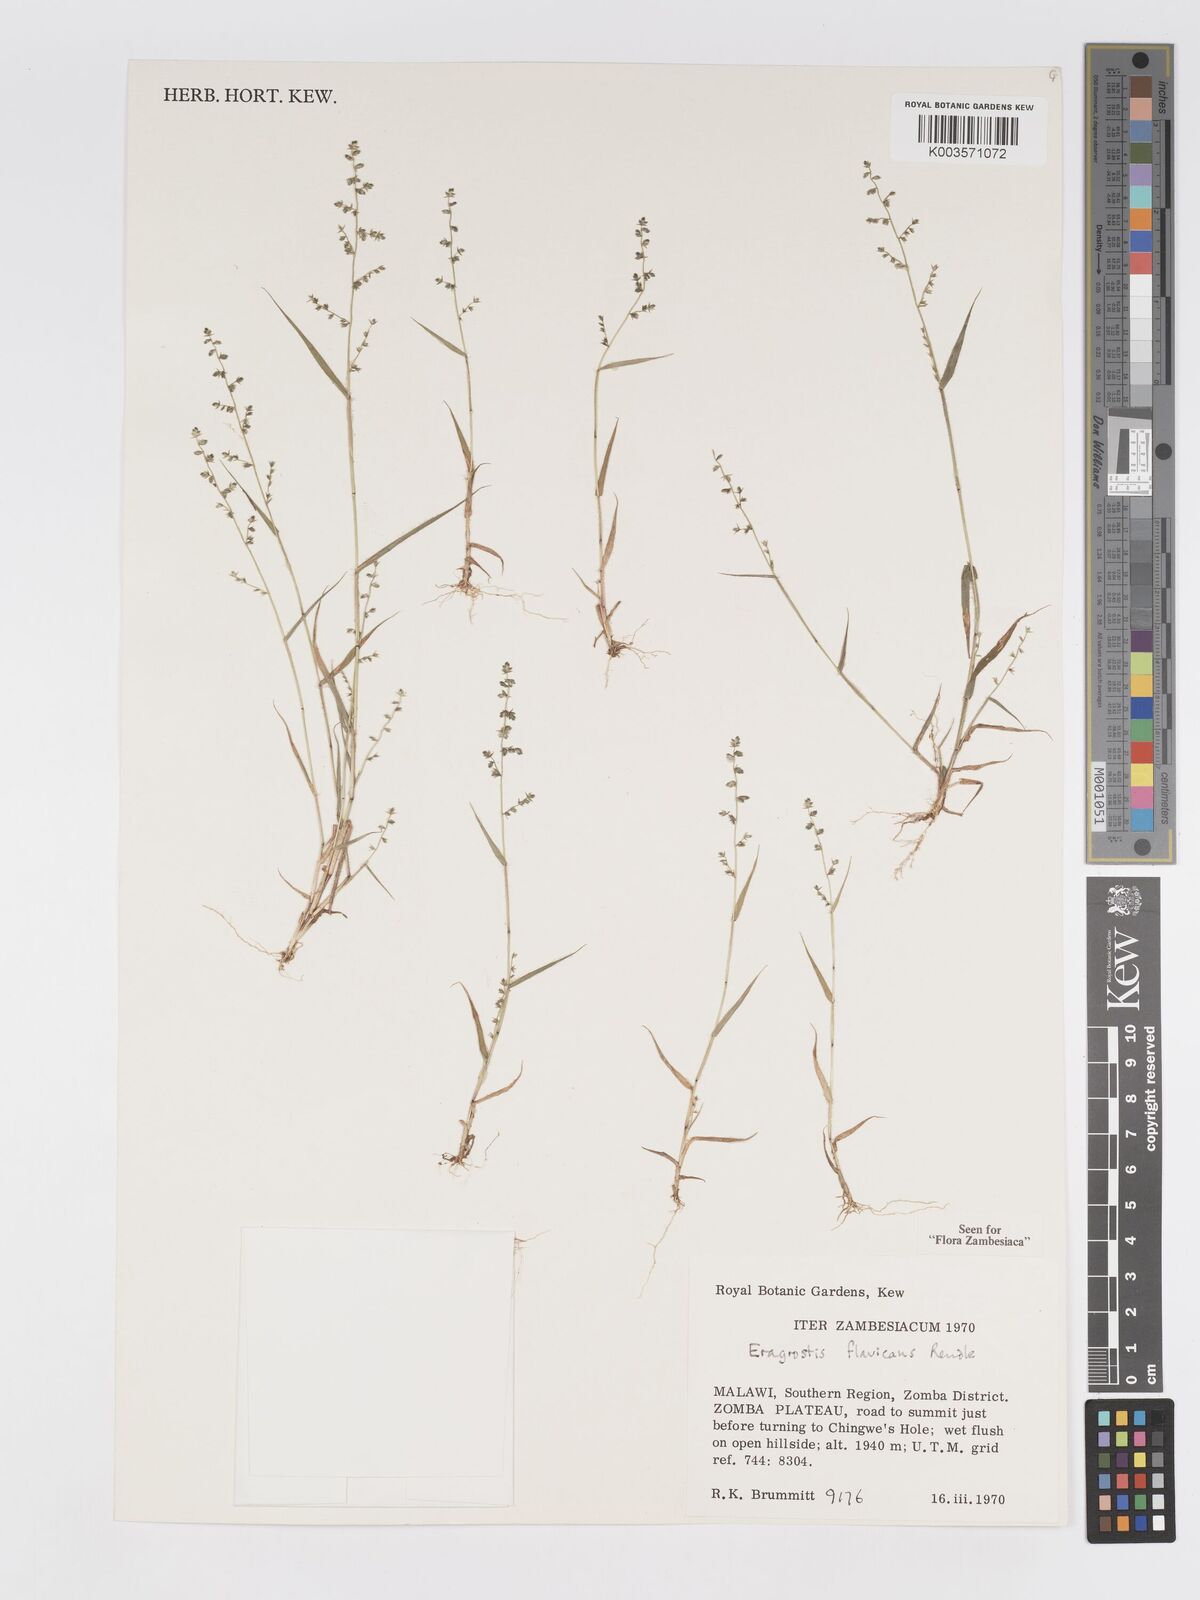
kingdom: Plantae
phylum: Tracheophyta
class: Liliopsida
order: Poales
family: Poaceae
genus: Eragrostis
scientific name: Eragrostis flavicans
